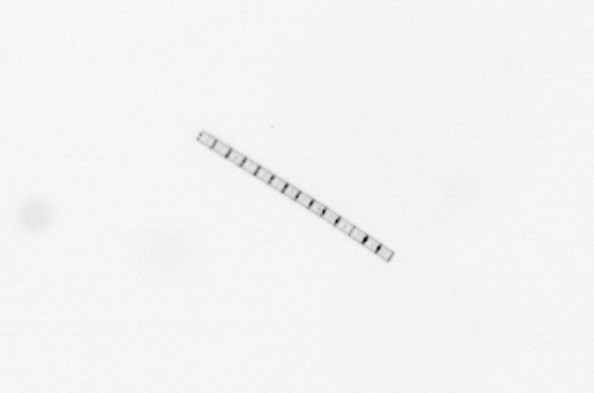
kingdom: Chromista
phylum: Ochrophyta
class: Bacillariophyceae
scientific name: Bacillariophyceae
